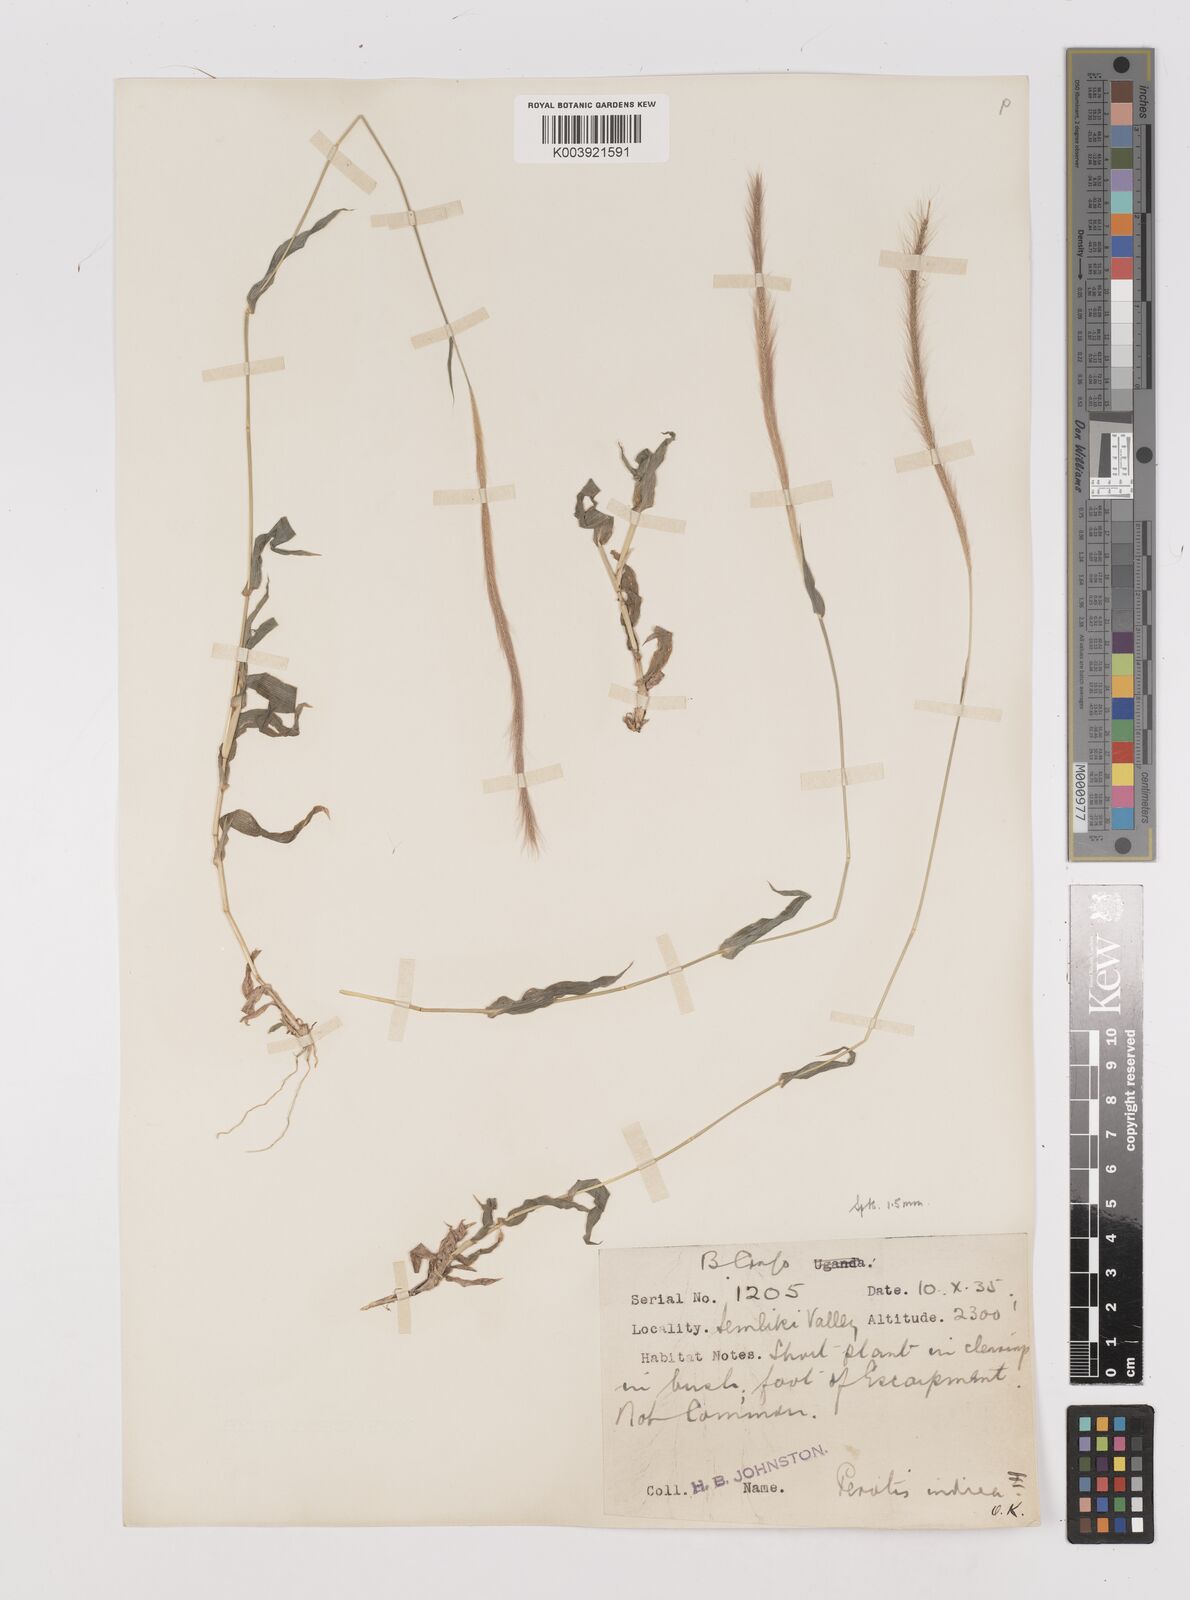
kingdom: Plantae
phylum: Tracheophyta
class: Liliopsida
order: Poales
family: Poaceae
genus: Perotis
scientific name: Perotis patens
